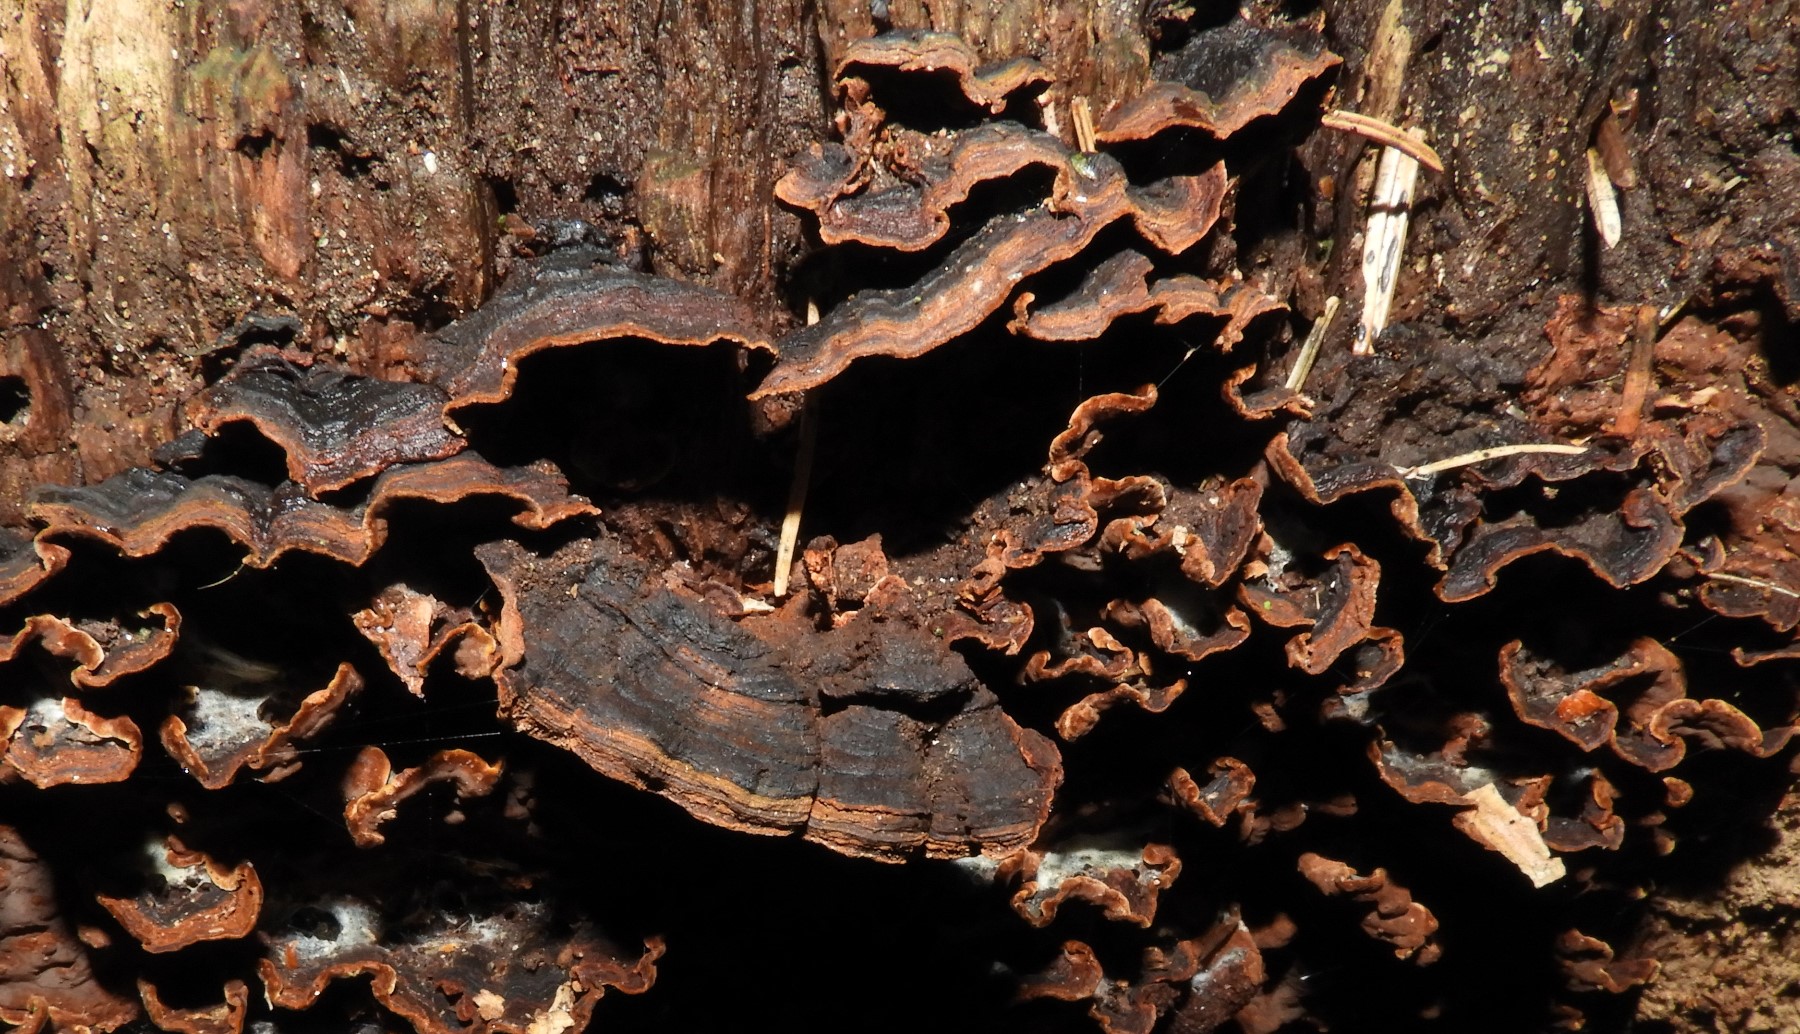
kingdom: Fungi
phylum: Basidiomycota
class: Agaricomycetes
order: Hymenochaetales
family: Hymenochaetaceae
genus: Hymenochaete
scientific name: Hymenochaete rubiginosa
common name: stiv ruslædersvamp
